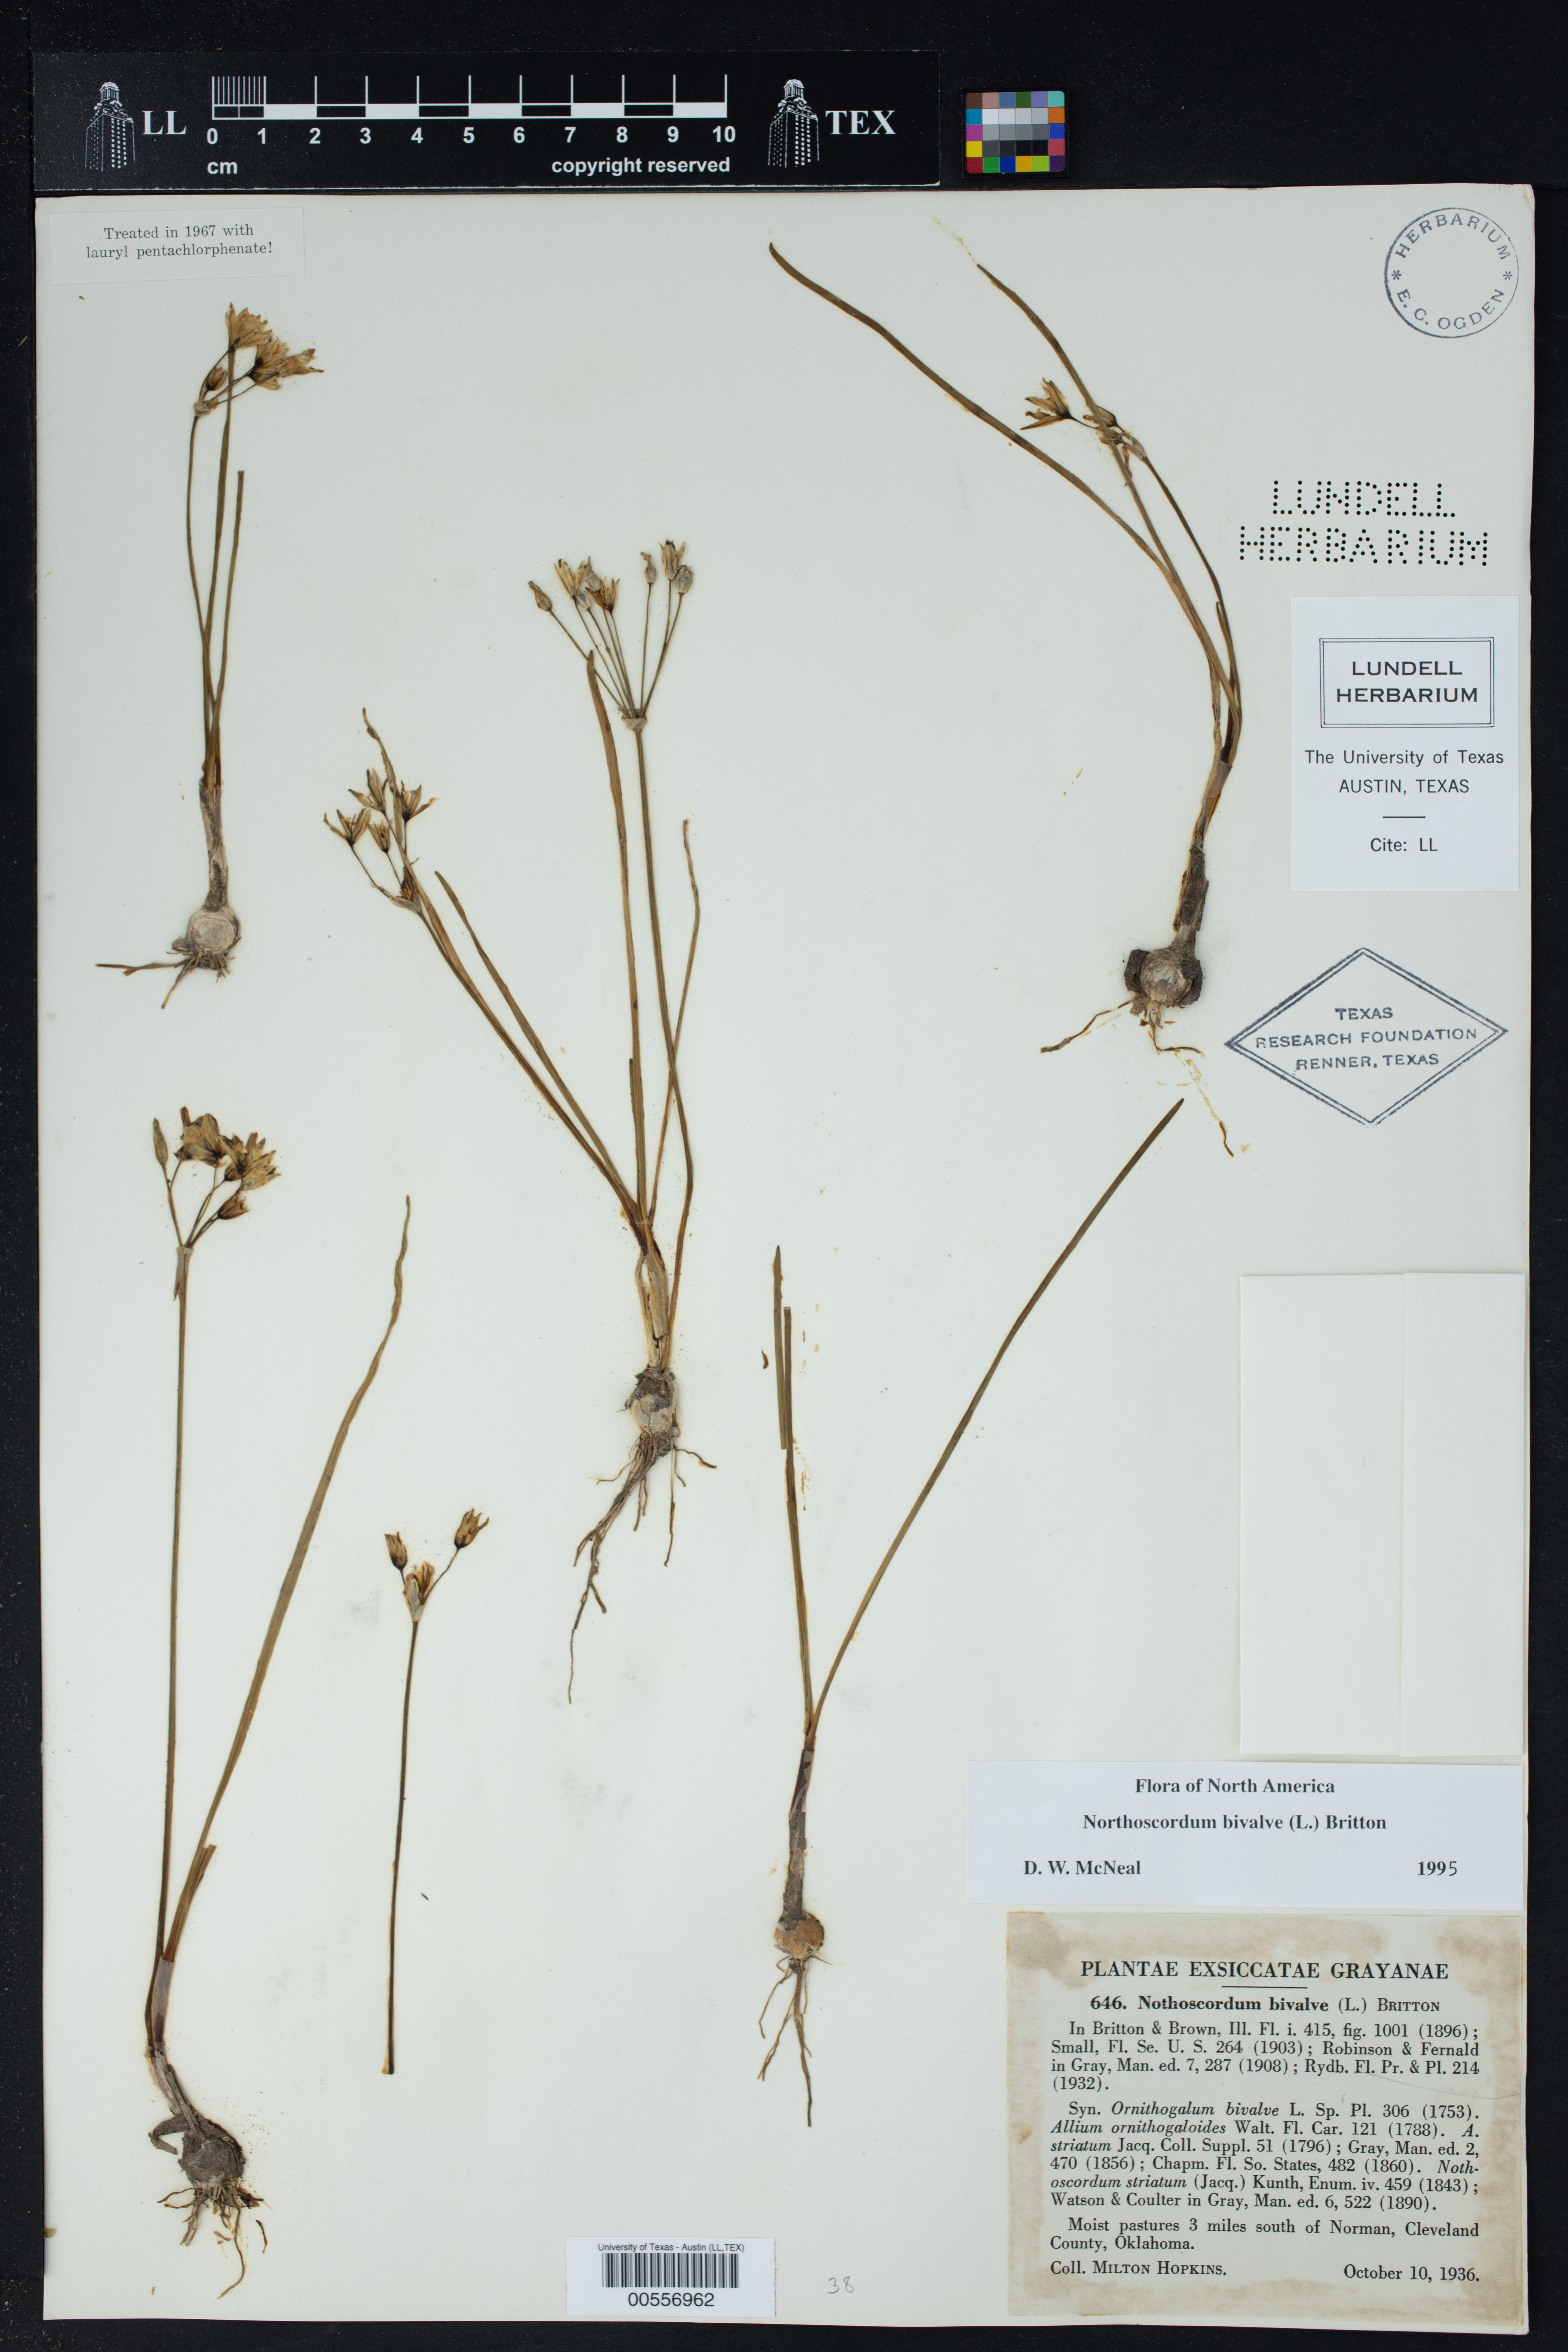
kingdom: Plantae
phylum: Tracheophyta
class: Liliopsida
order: Asparagales
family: Amaryllidaceae
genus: Nothoscordum
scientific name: Nothoscordum bivalve
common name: Crow-poison
